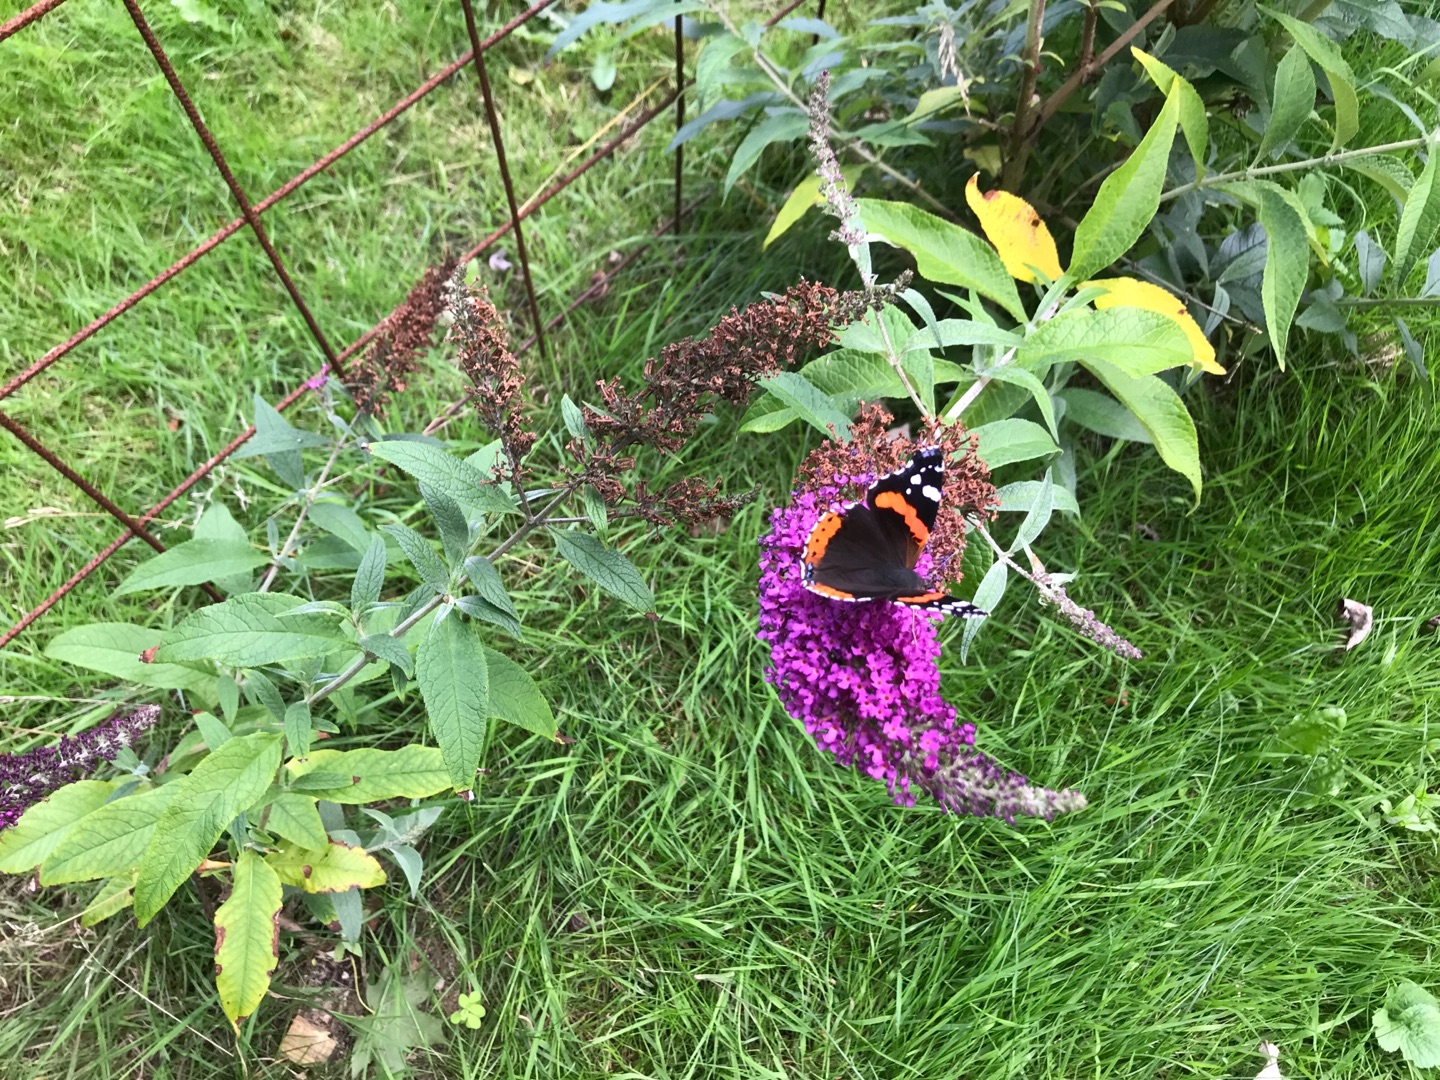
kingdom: Animalia
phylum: Arthropoda
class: Insecta
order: Lepidoptera
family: Nymphalidae
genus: Vanessa
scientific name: Vanessa atalanta
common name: Admiral
